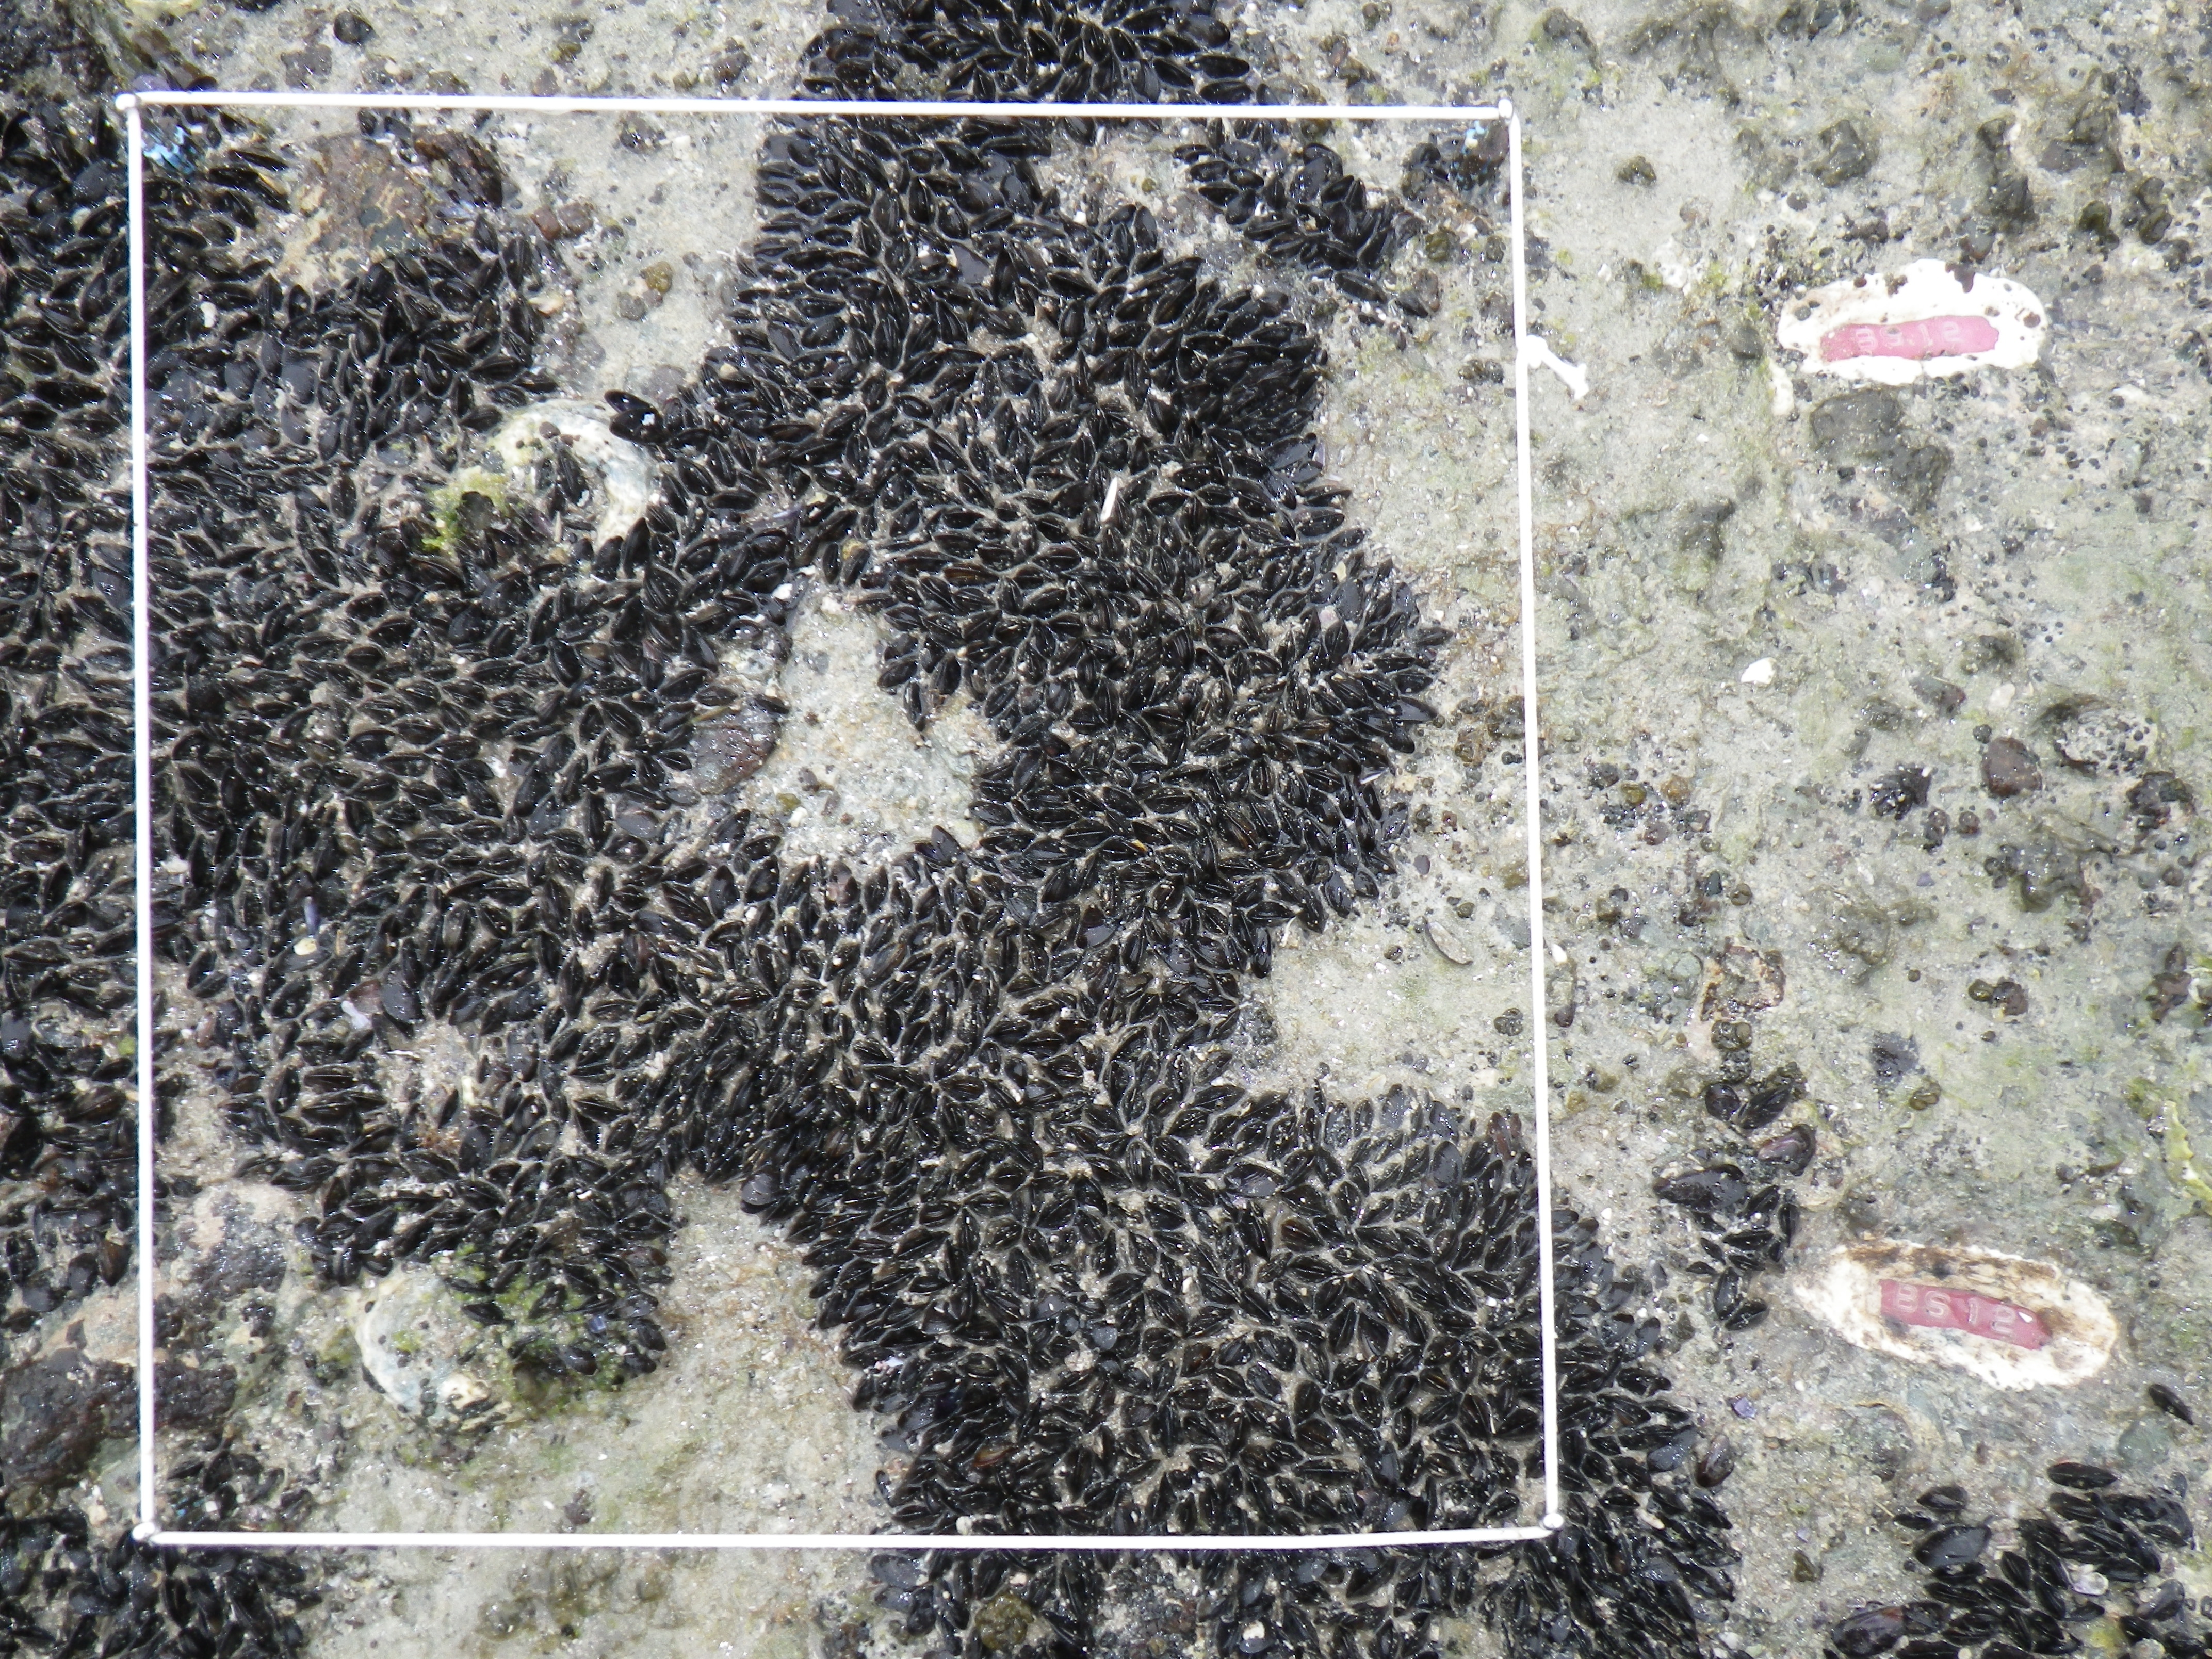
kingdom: Animalia
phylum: Mollusca
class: Bivalvia
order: Mytilida
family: Mytilidae
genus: Brachidontes
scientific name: Brachidontes mutabilis
